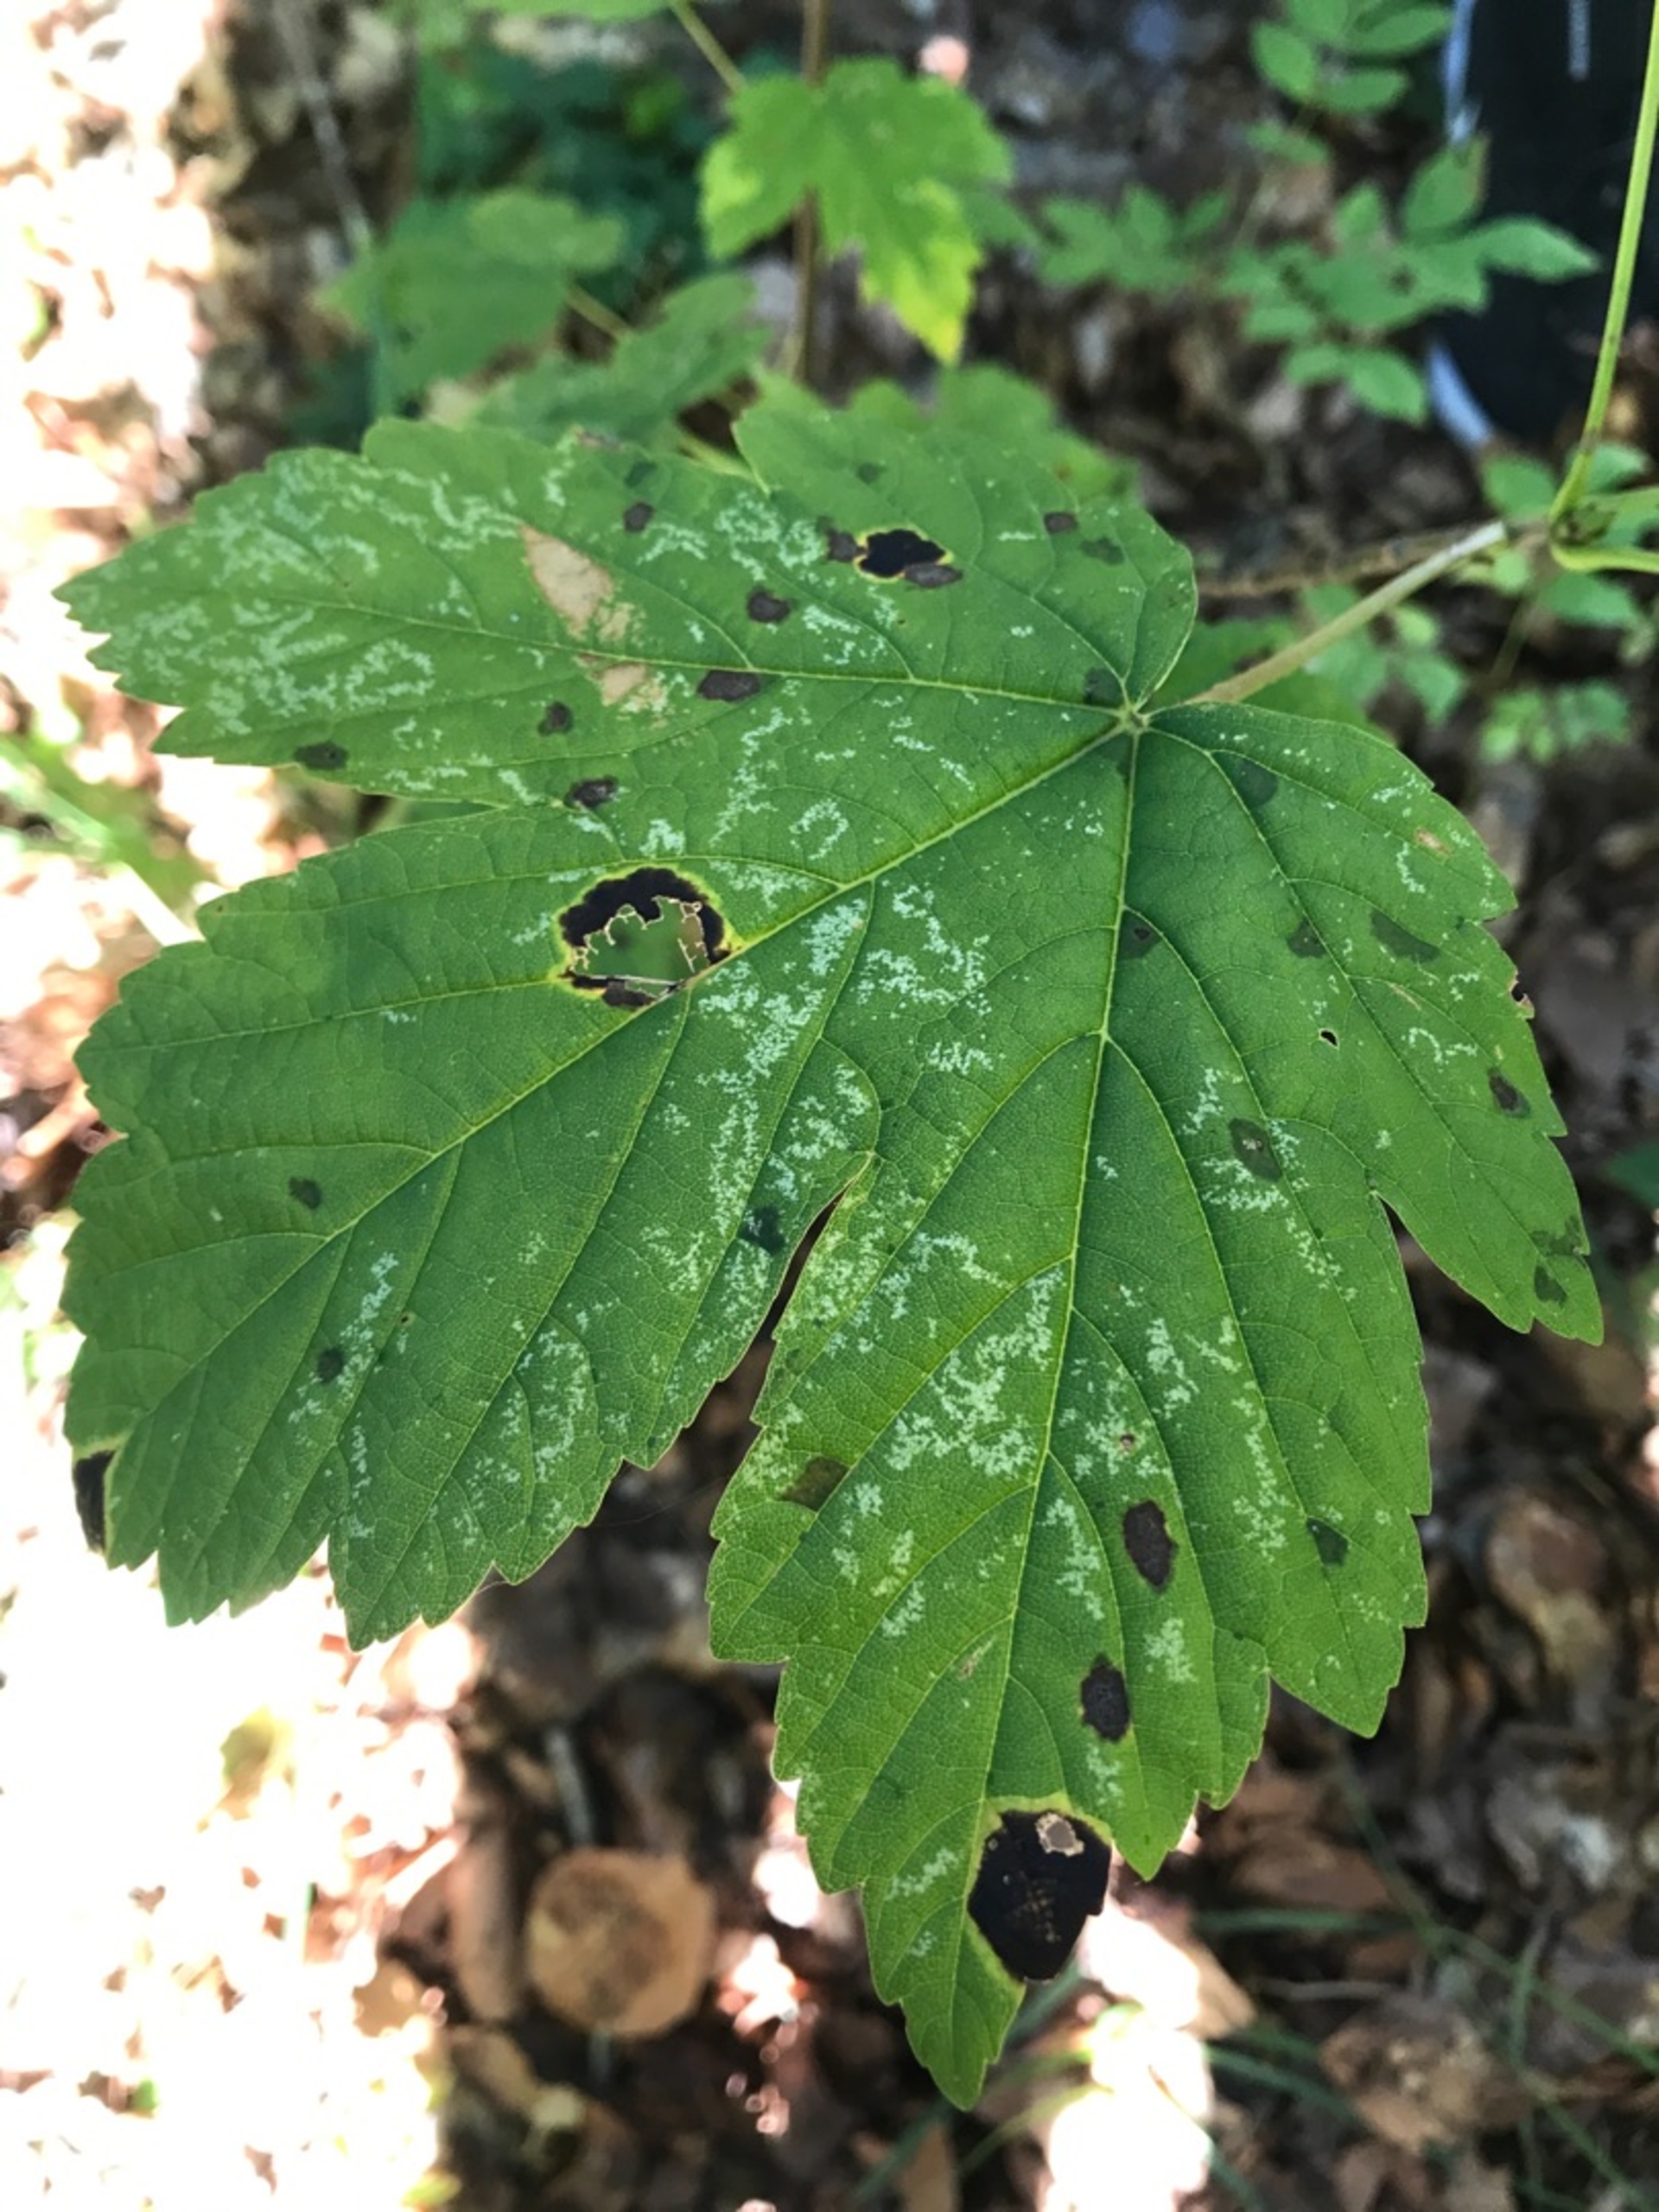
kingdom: Fungi
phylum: Ascomycota
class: Leotiomycetes
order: Rhytismatales
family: Rhytismataceae
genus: Rhytisma
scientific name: Rhytisma acerinum
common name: Ahorn-rynkeplet
